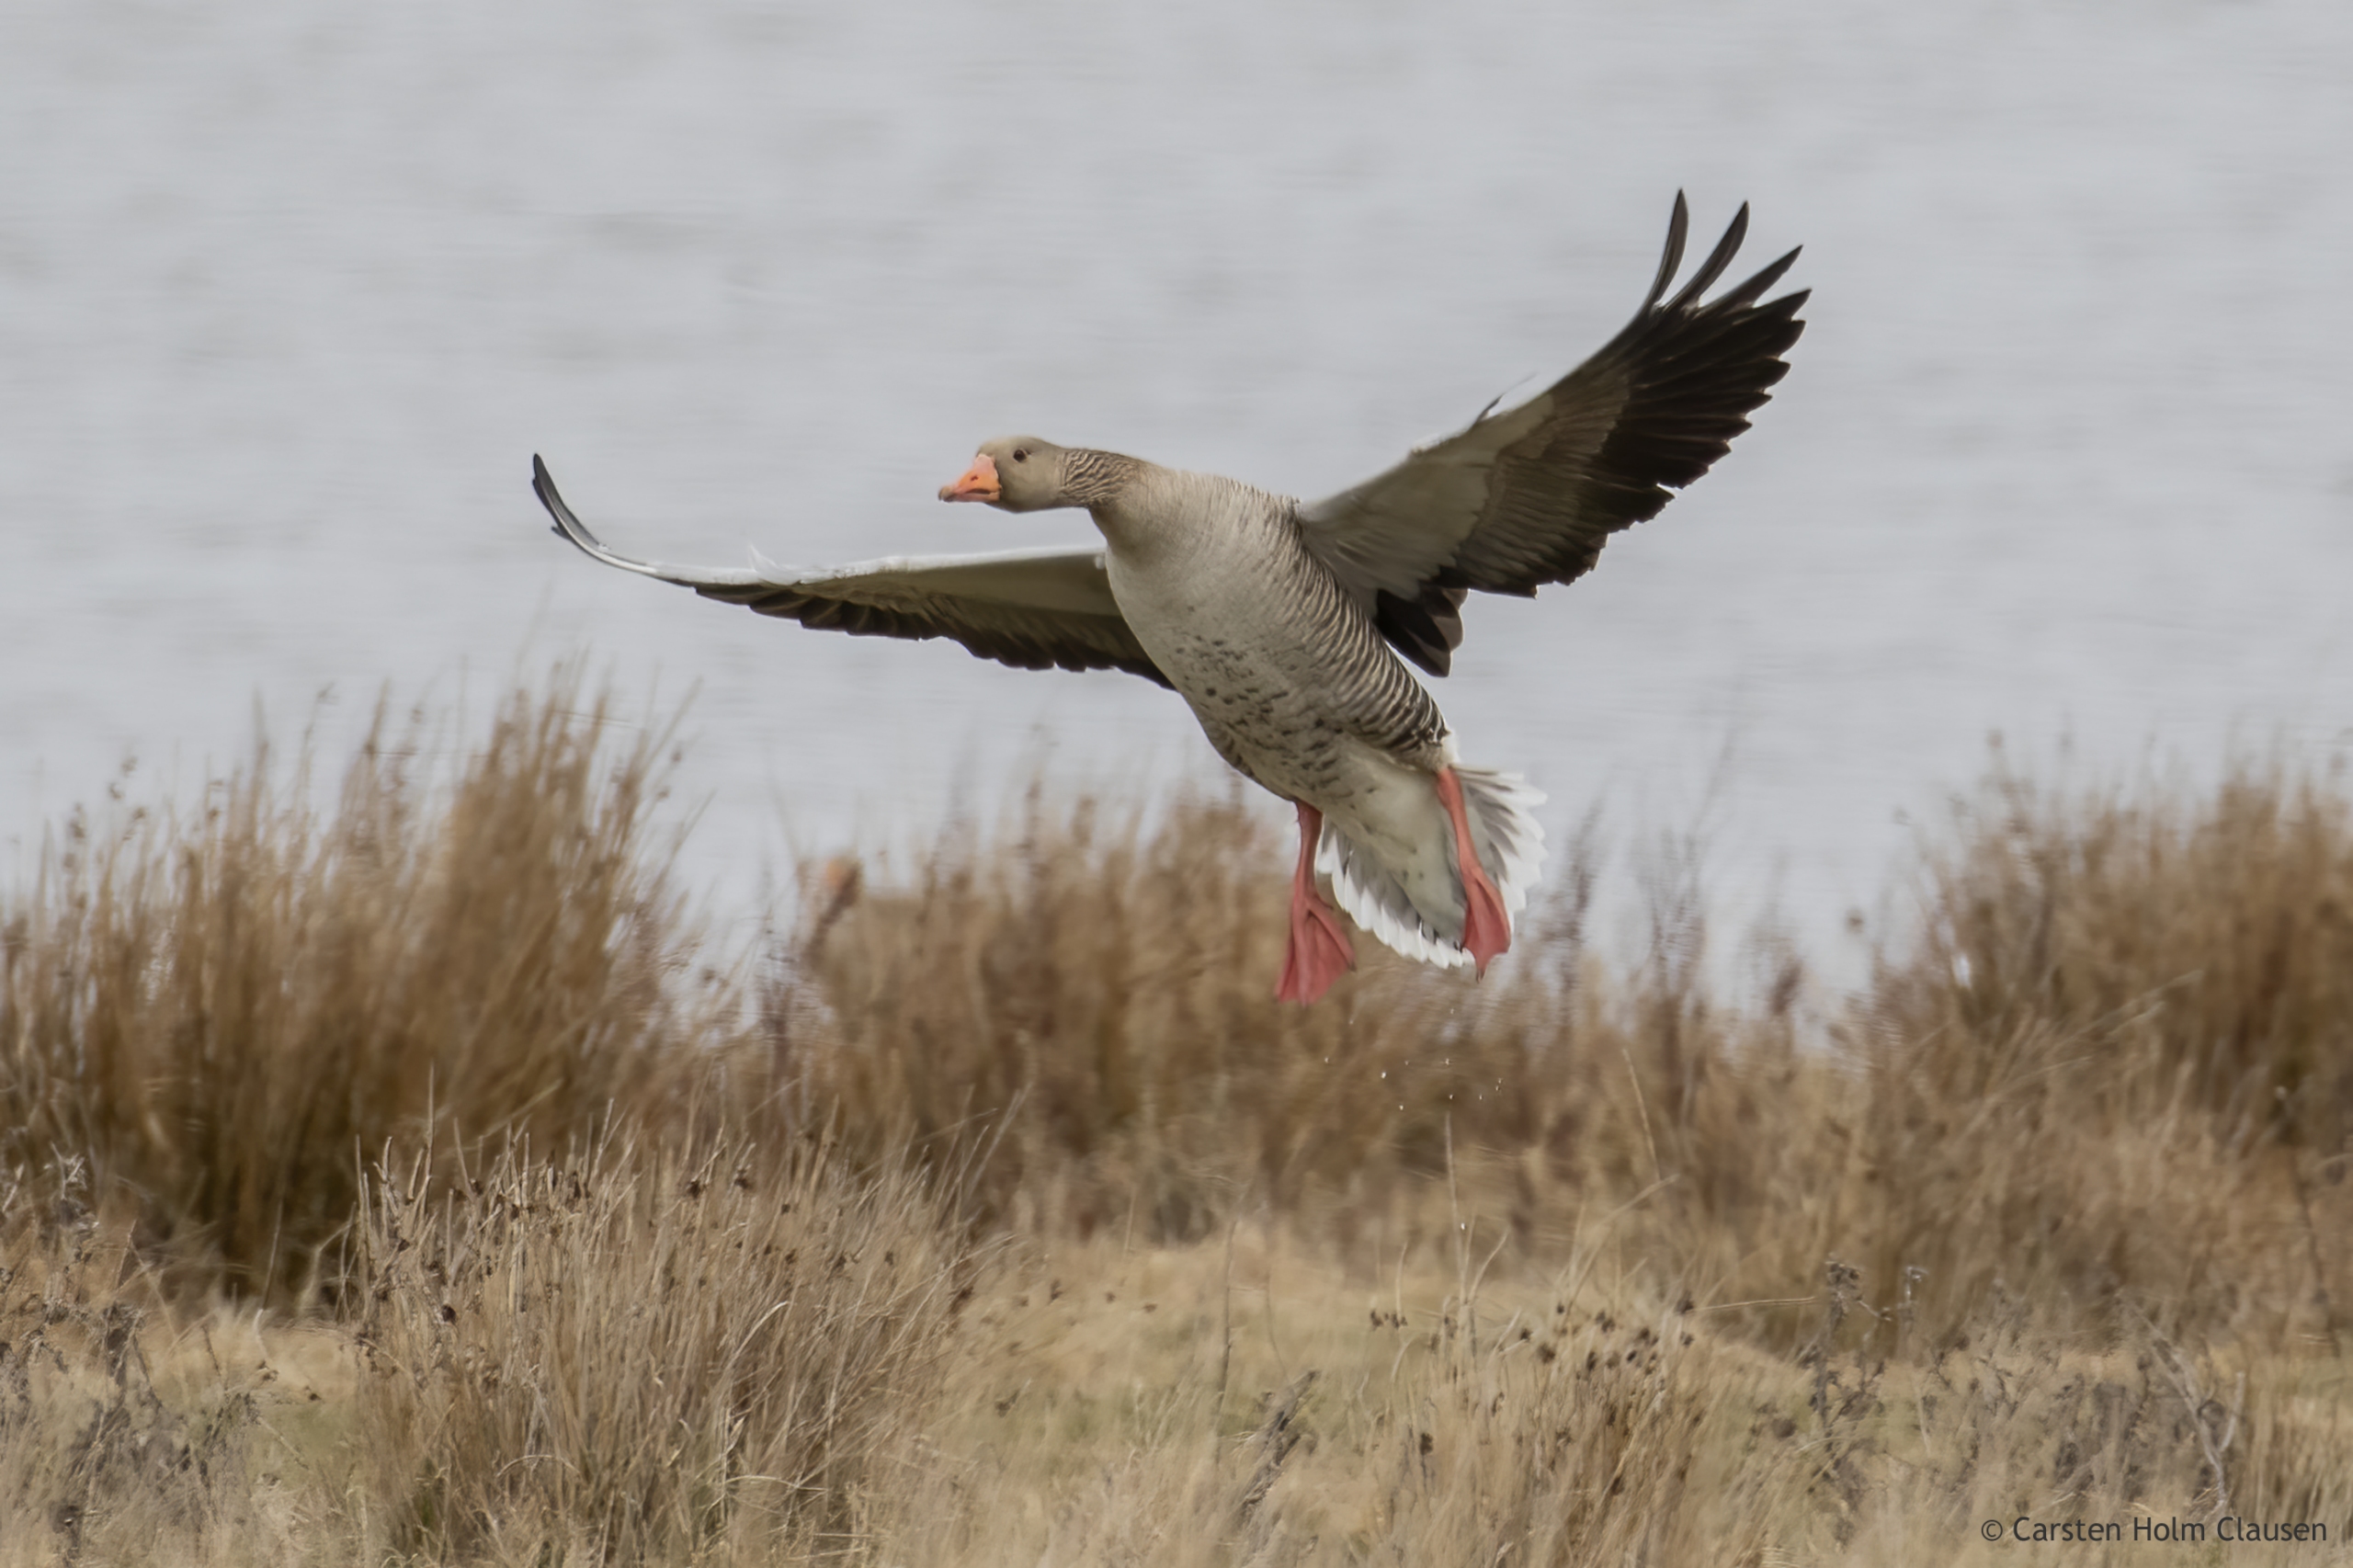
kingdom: Animalia
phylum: Chordata
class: Aves
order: Anseriformes
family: Anatidae
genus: Anser
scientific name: Anser anser
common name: Grågås
